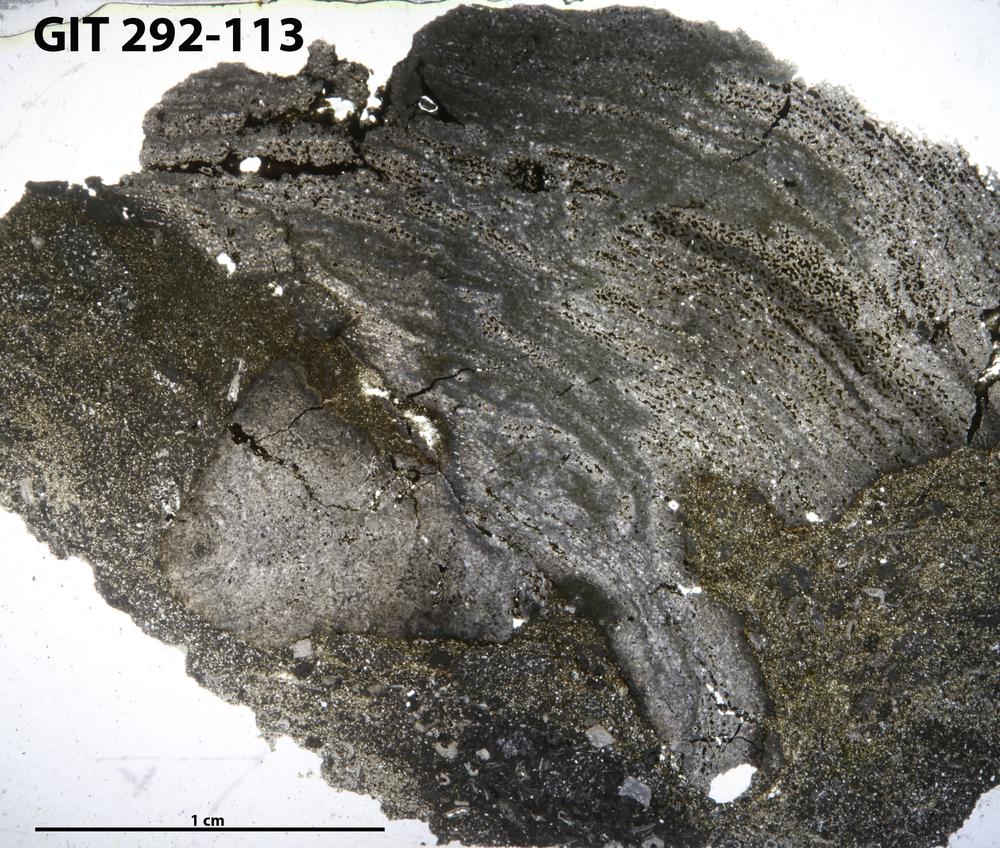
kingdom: Animalia
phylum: Porifera
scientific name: Porifera
